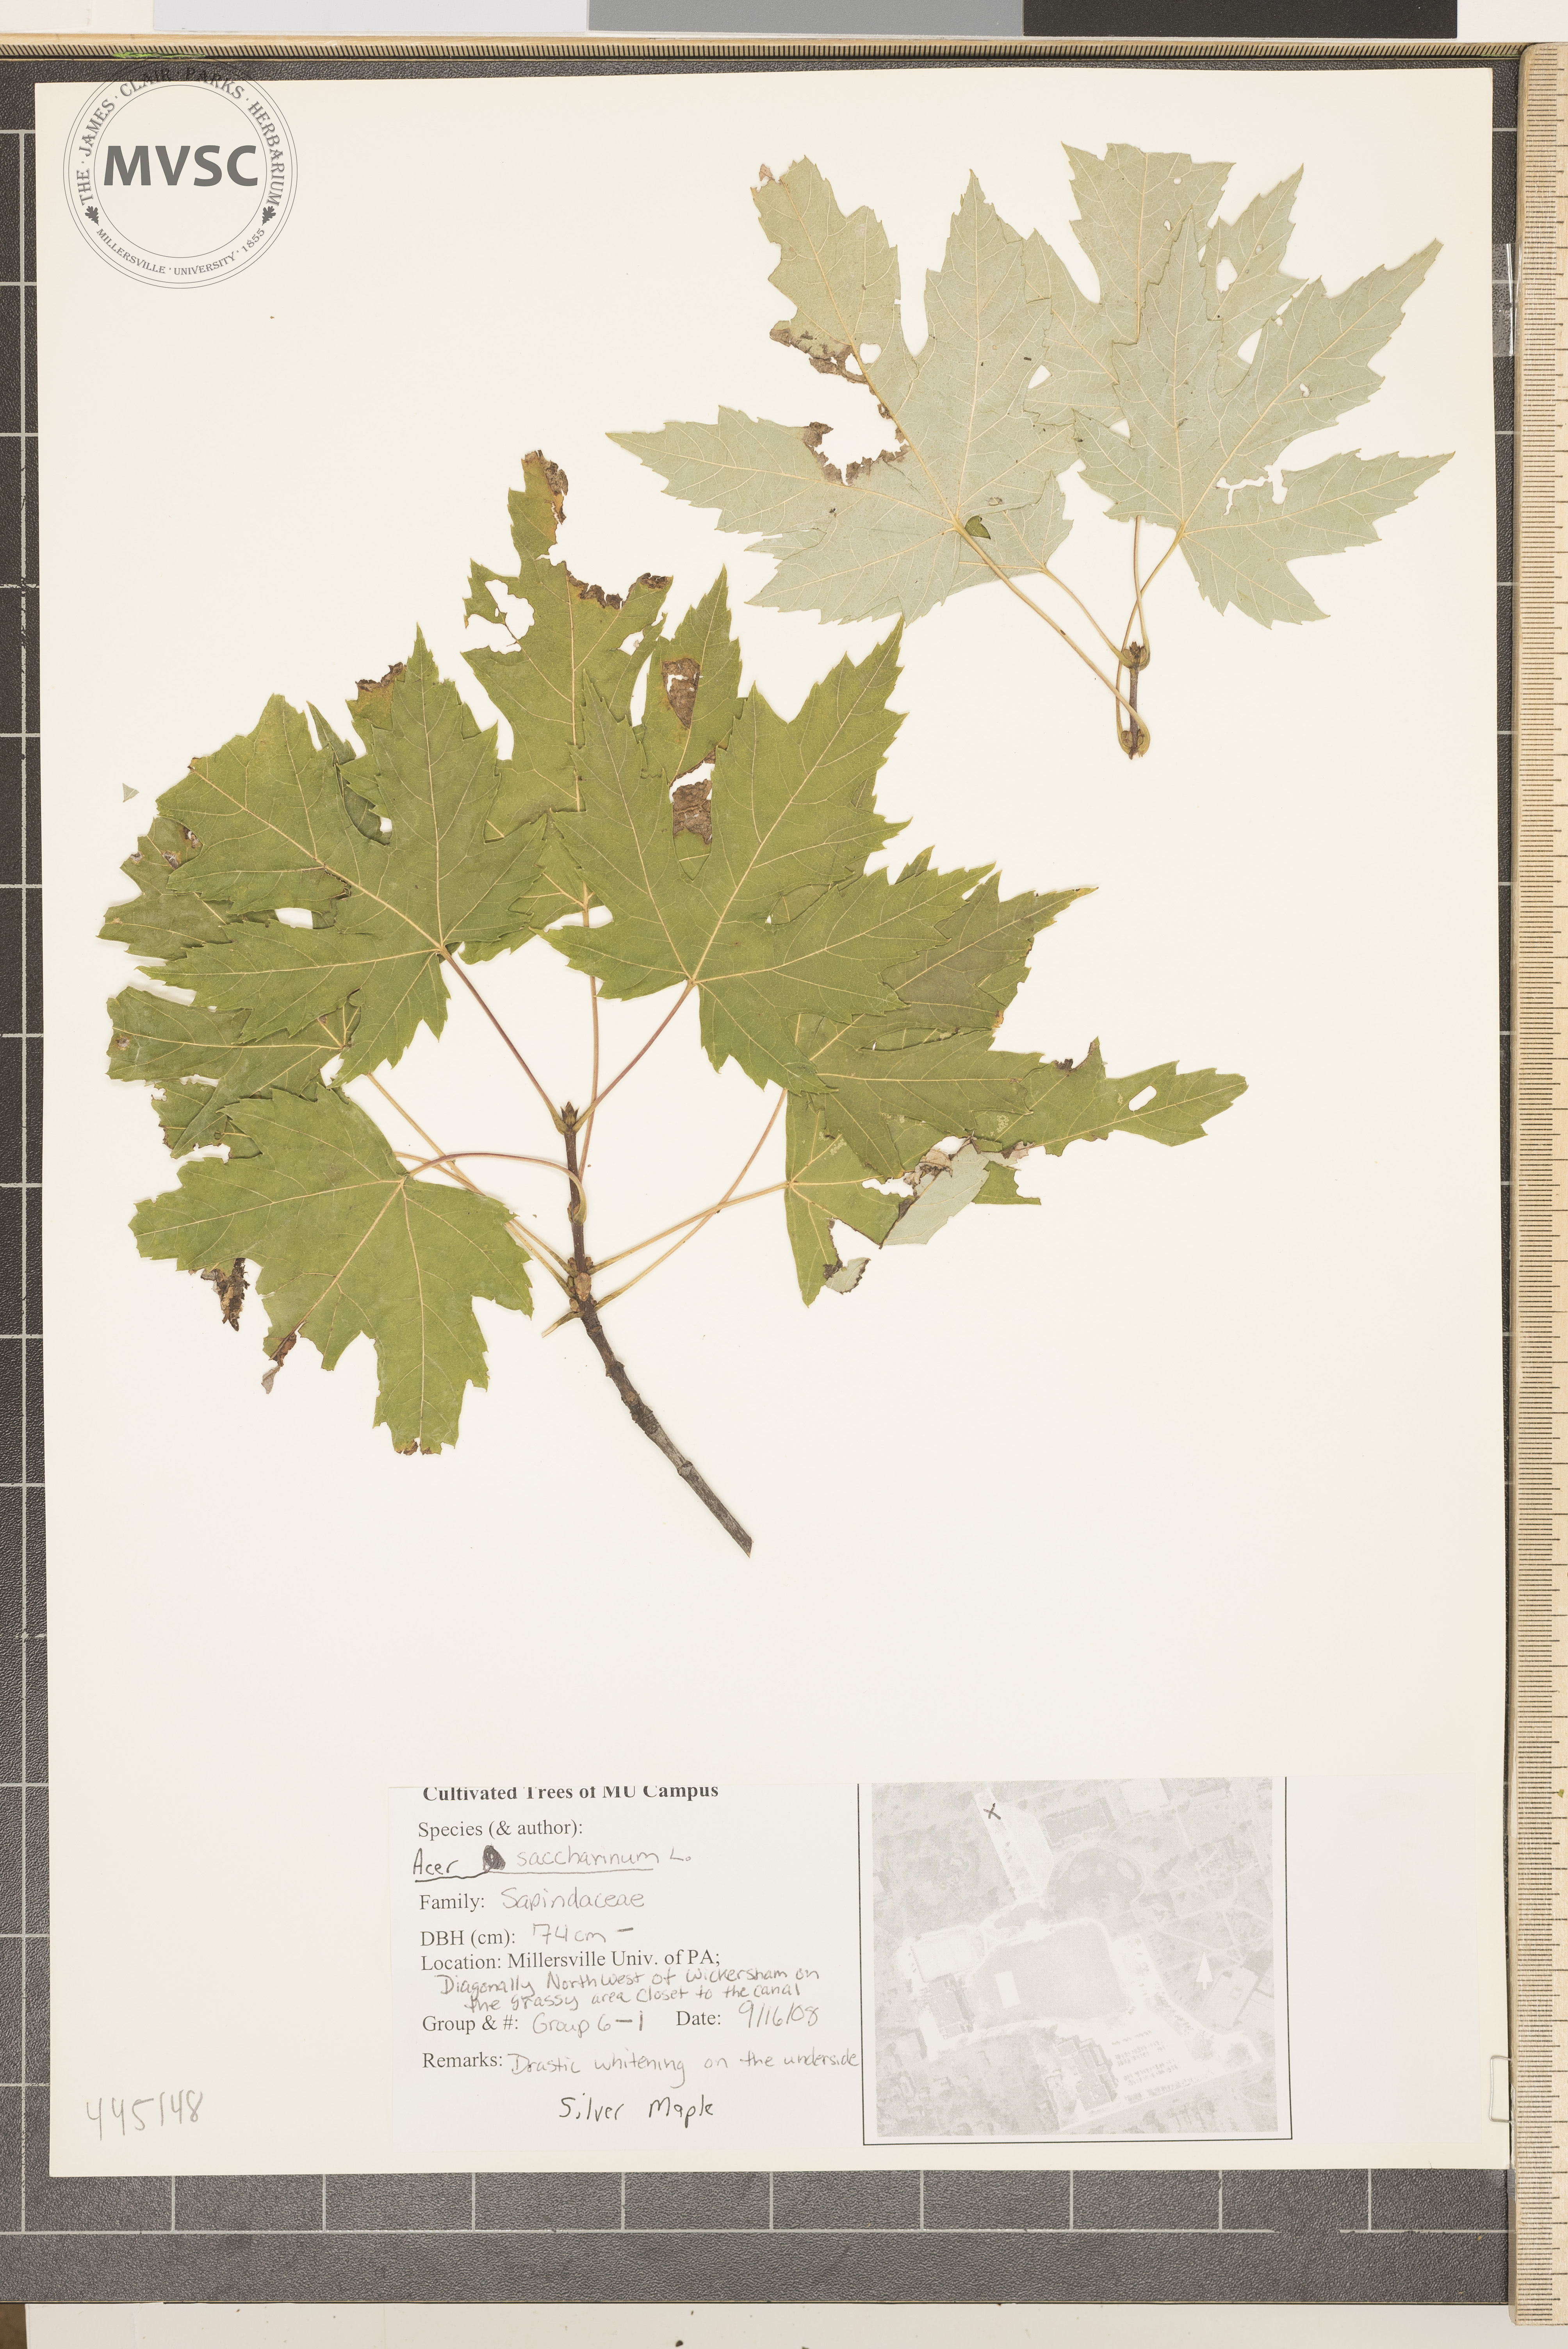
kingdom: Plantae
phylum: Tracheophyta
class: Magnoliopsida
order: Sapindales
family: Sapindaceae
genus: Acer
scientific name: Acer saccharinum
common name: Silver maple
